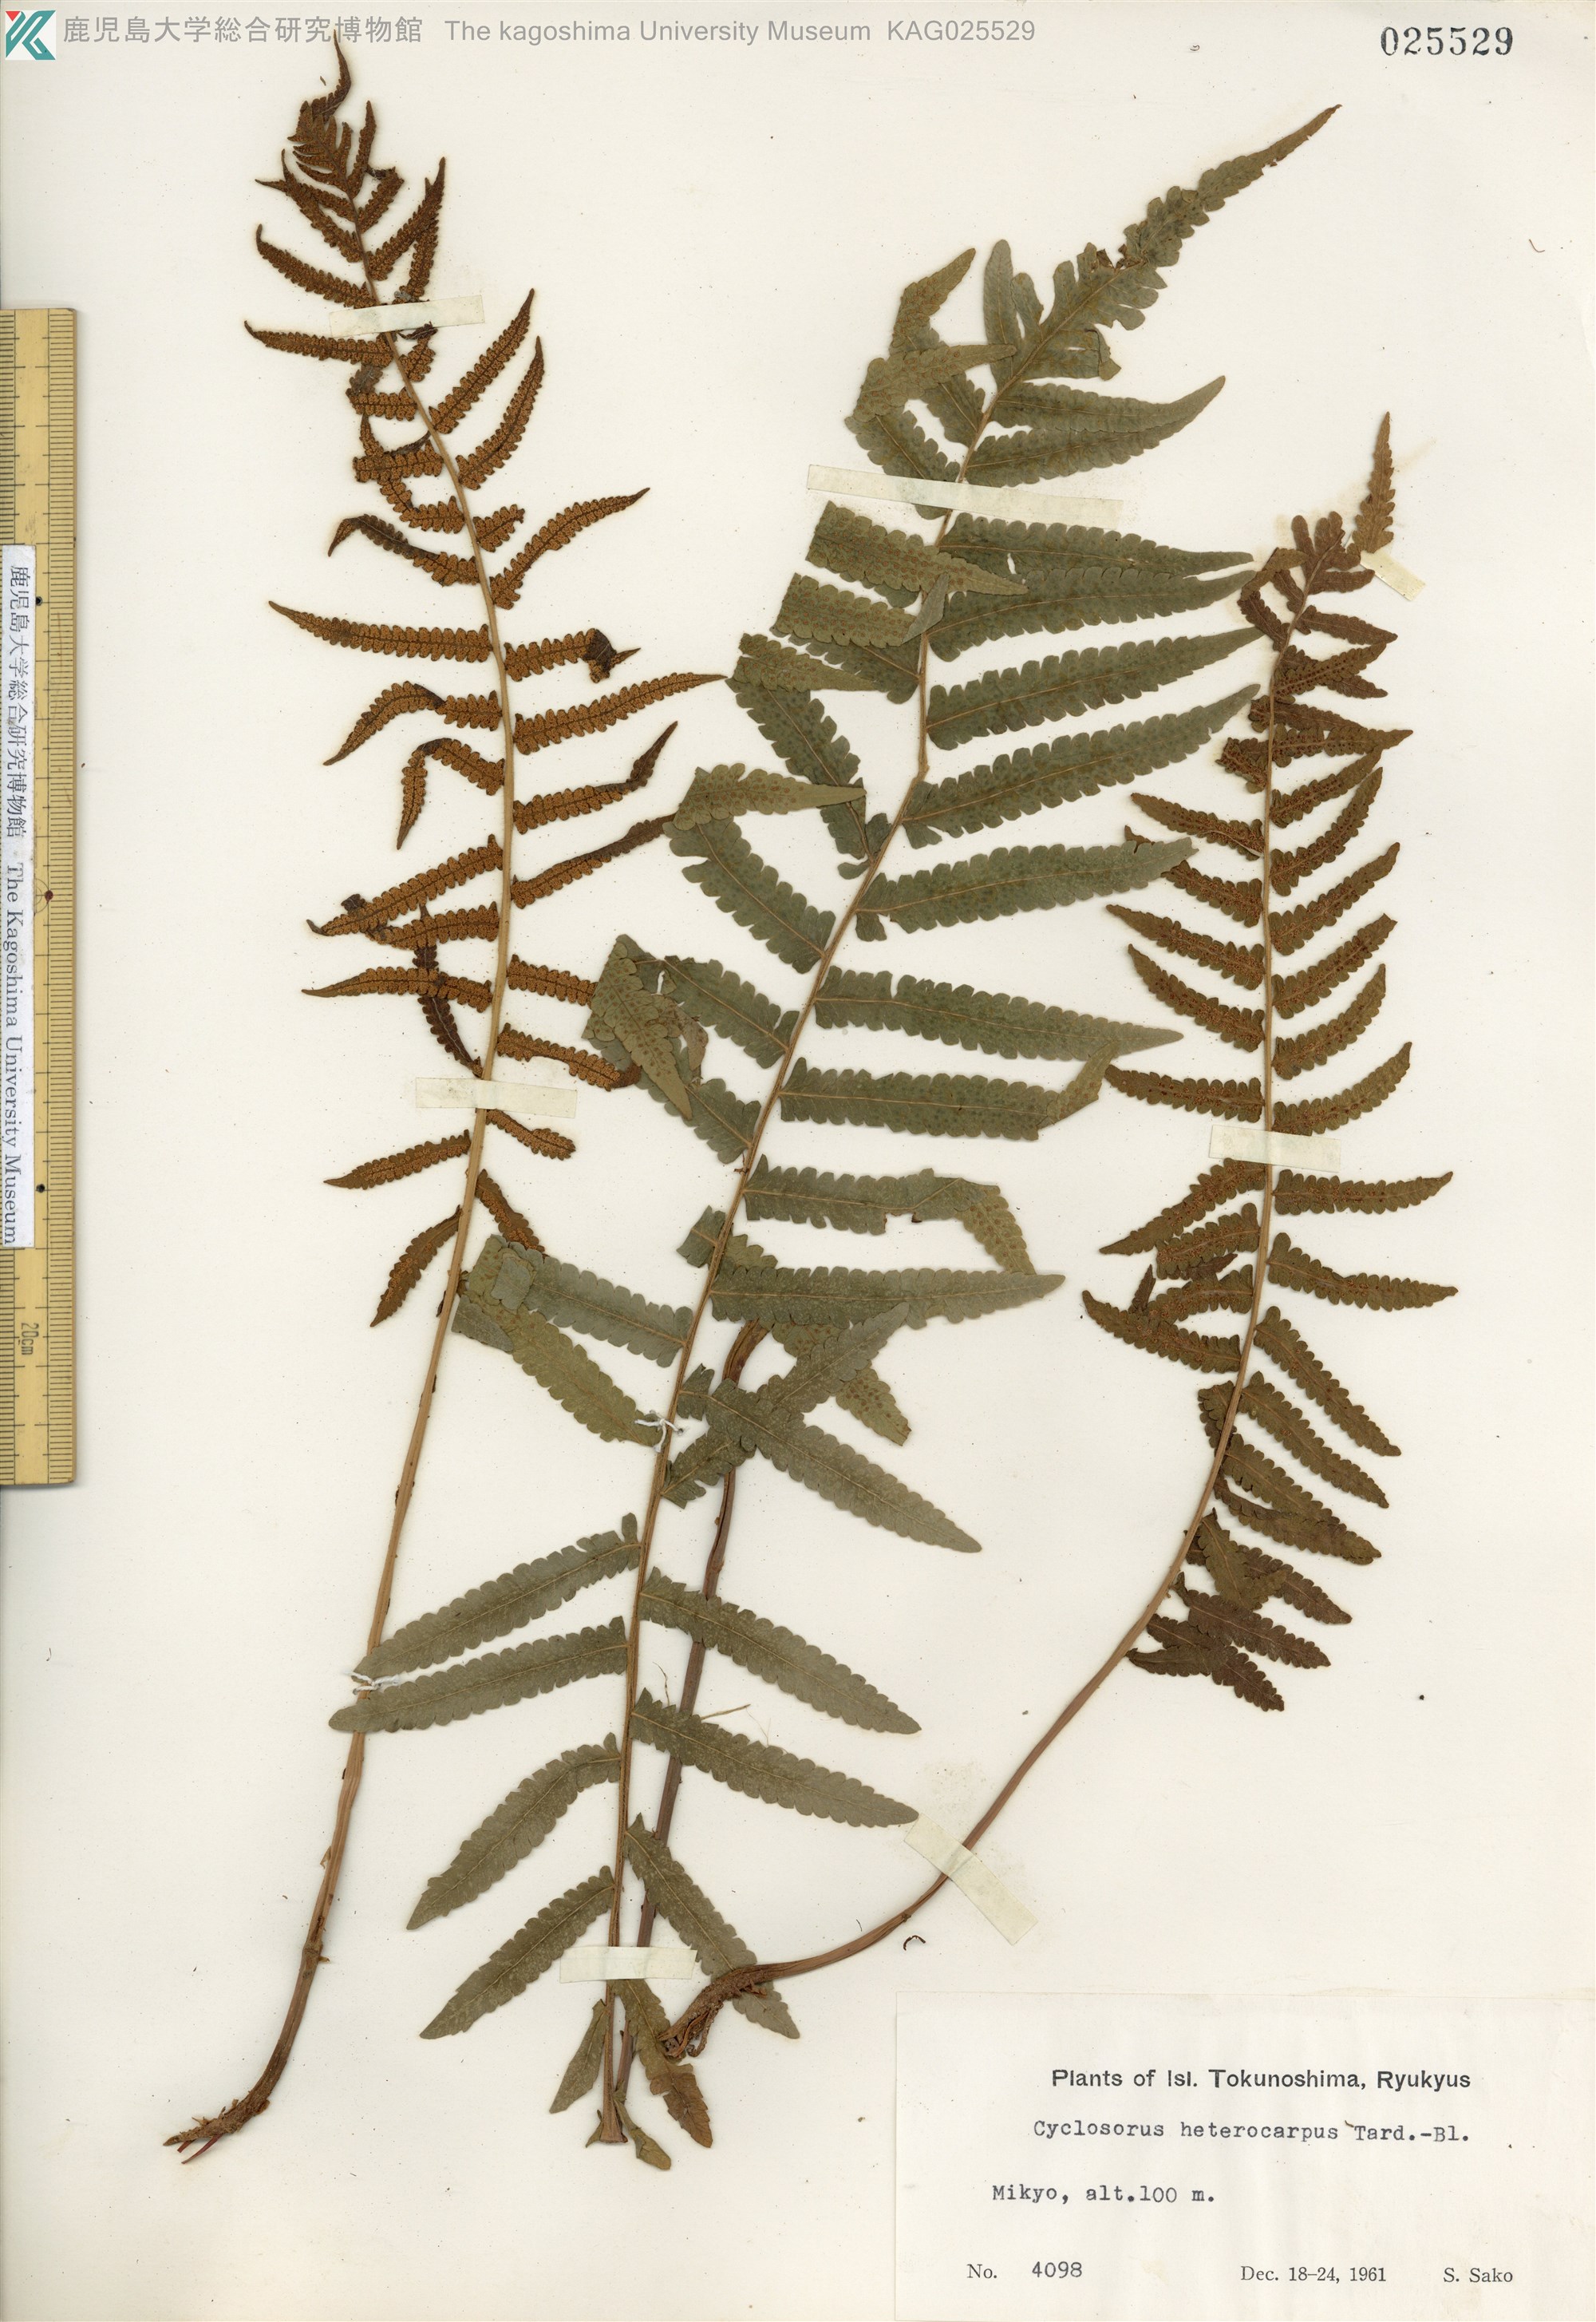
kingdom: Plantae
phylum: Tracheophyta
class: Polypodiopsida
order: Polypodiales
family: Thelypteridaceae
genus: Christella
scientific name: Christella dentata
